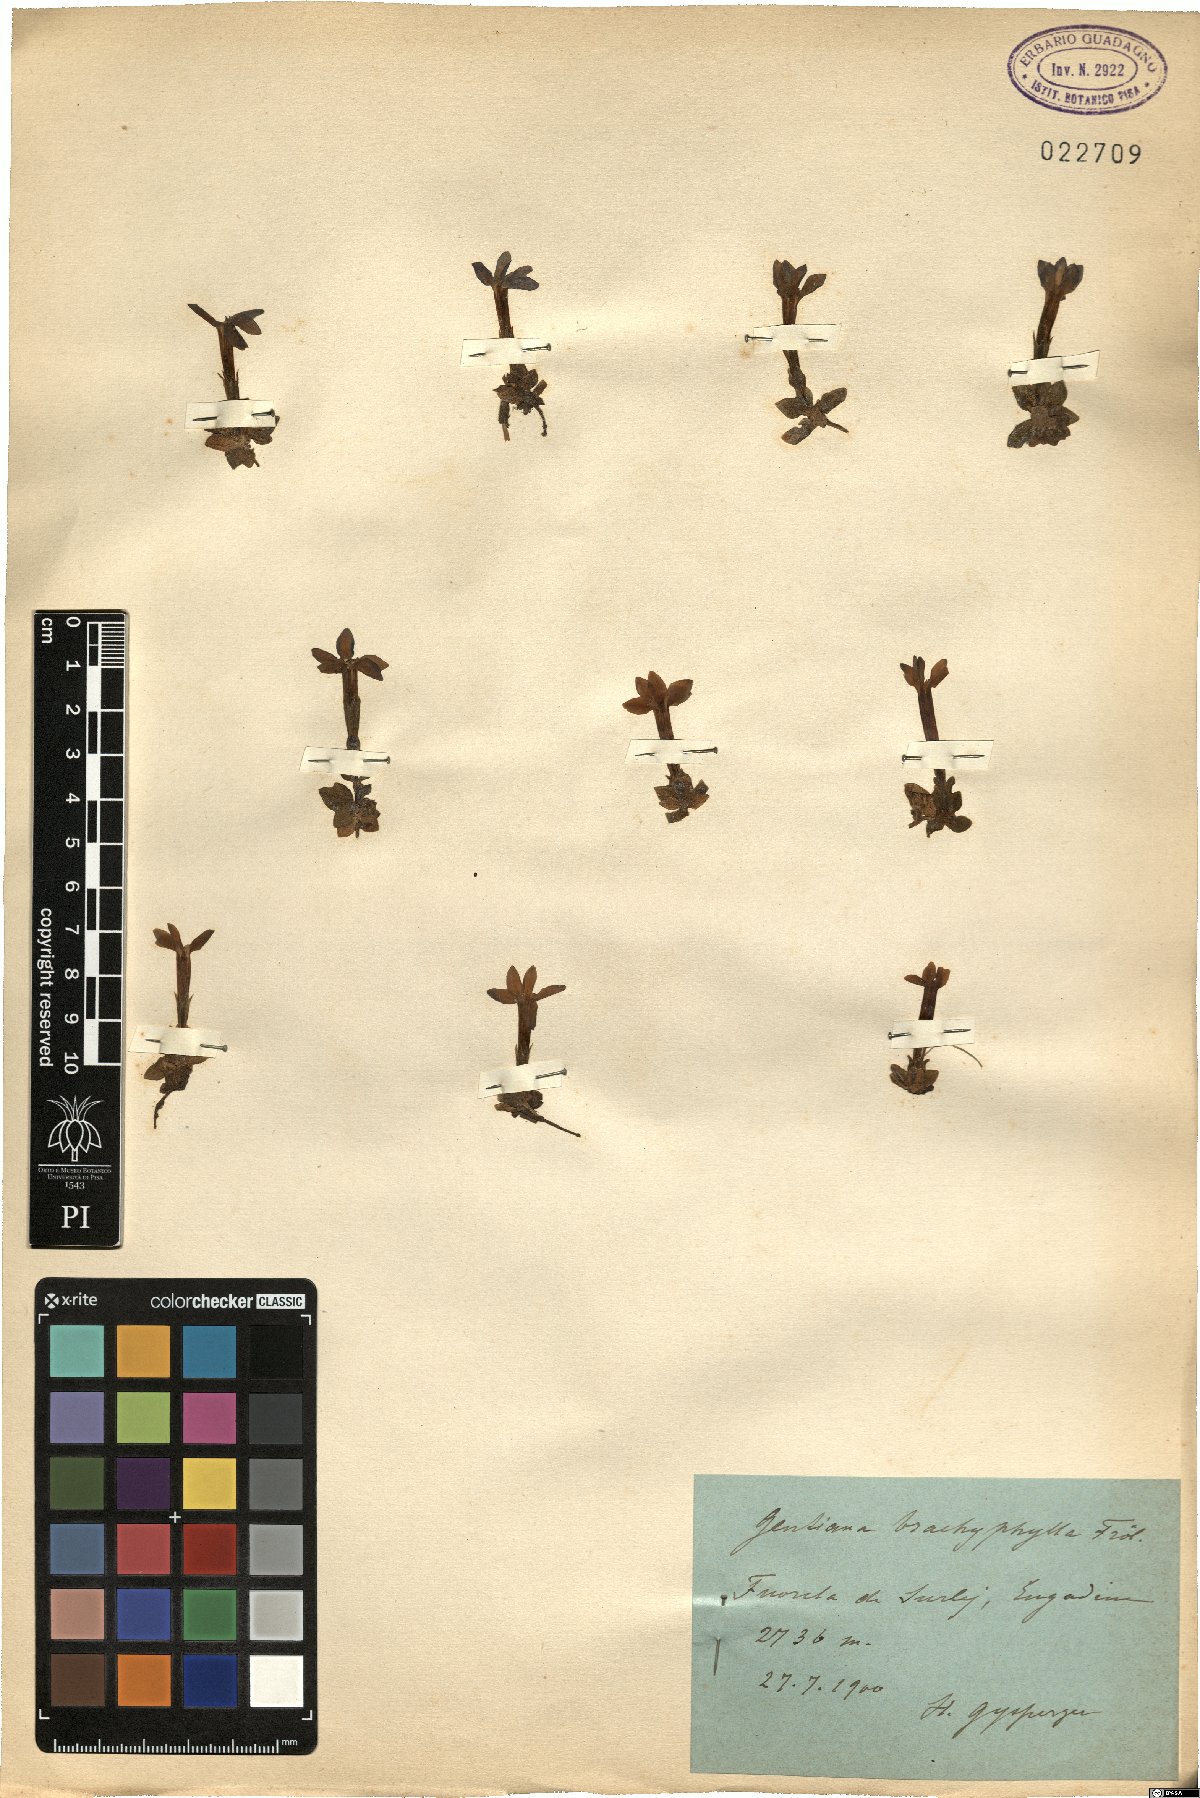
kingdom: Plantae
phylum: Tracheophyta
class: Magnoliopsida
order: Gentianales
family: Gentianaceae
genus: Gentiana
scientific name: Gentiana brachyphylla
